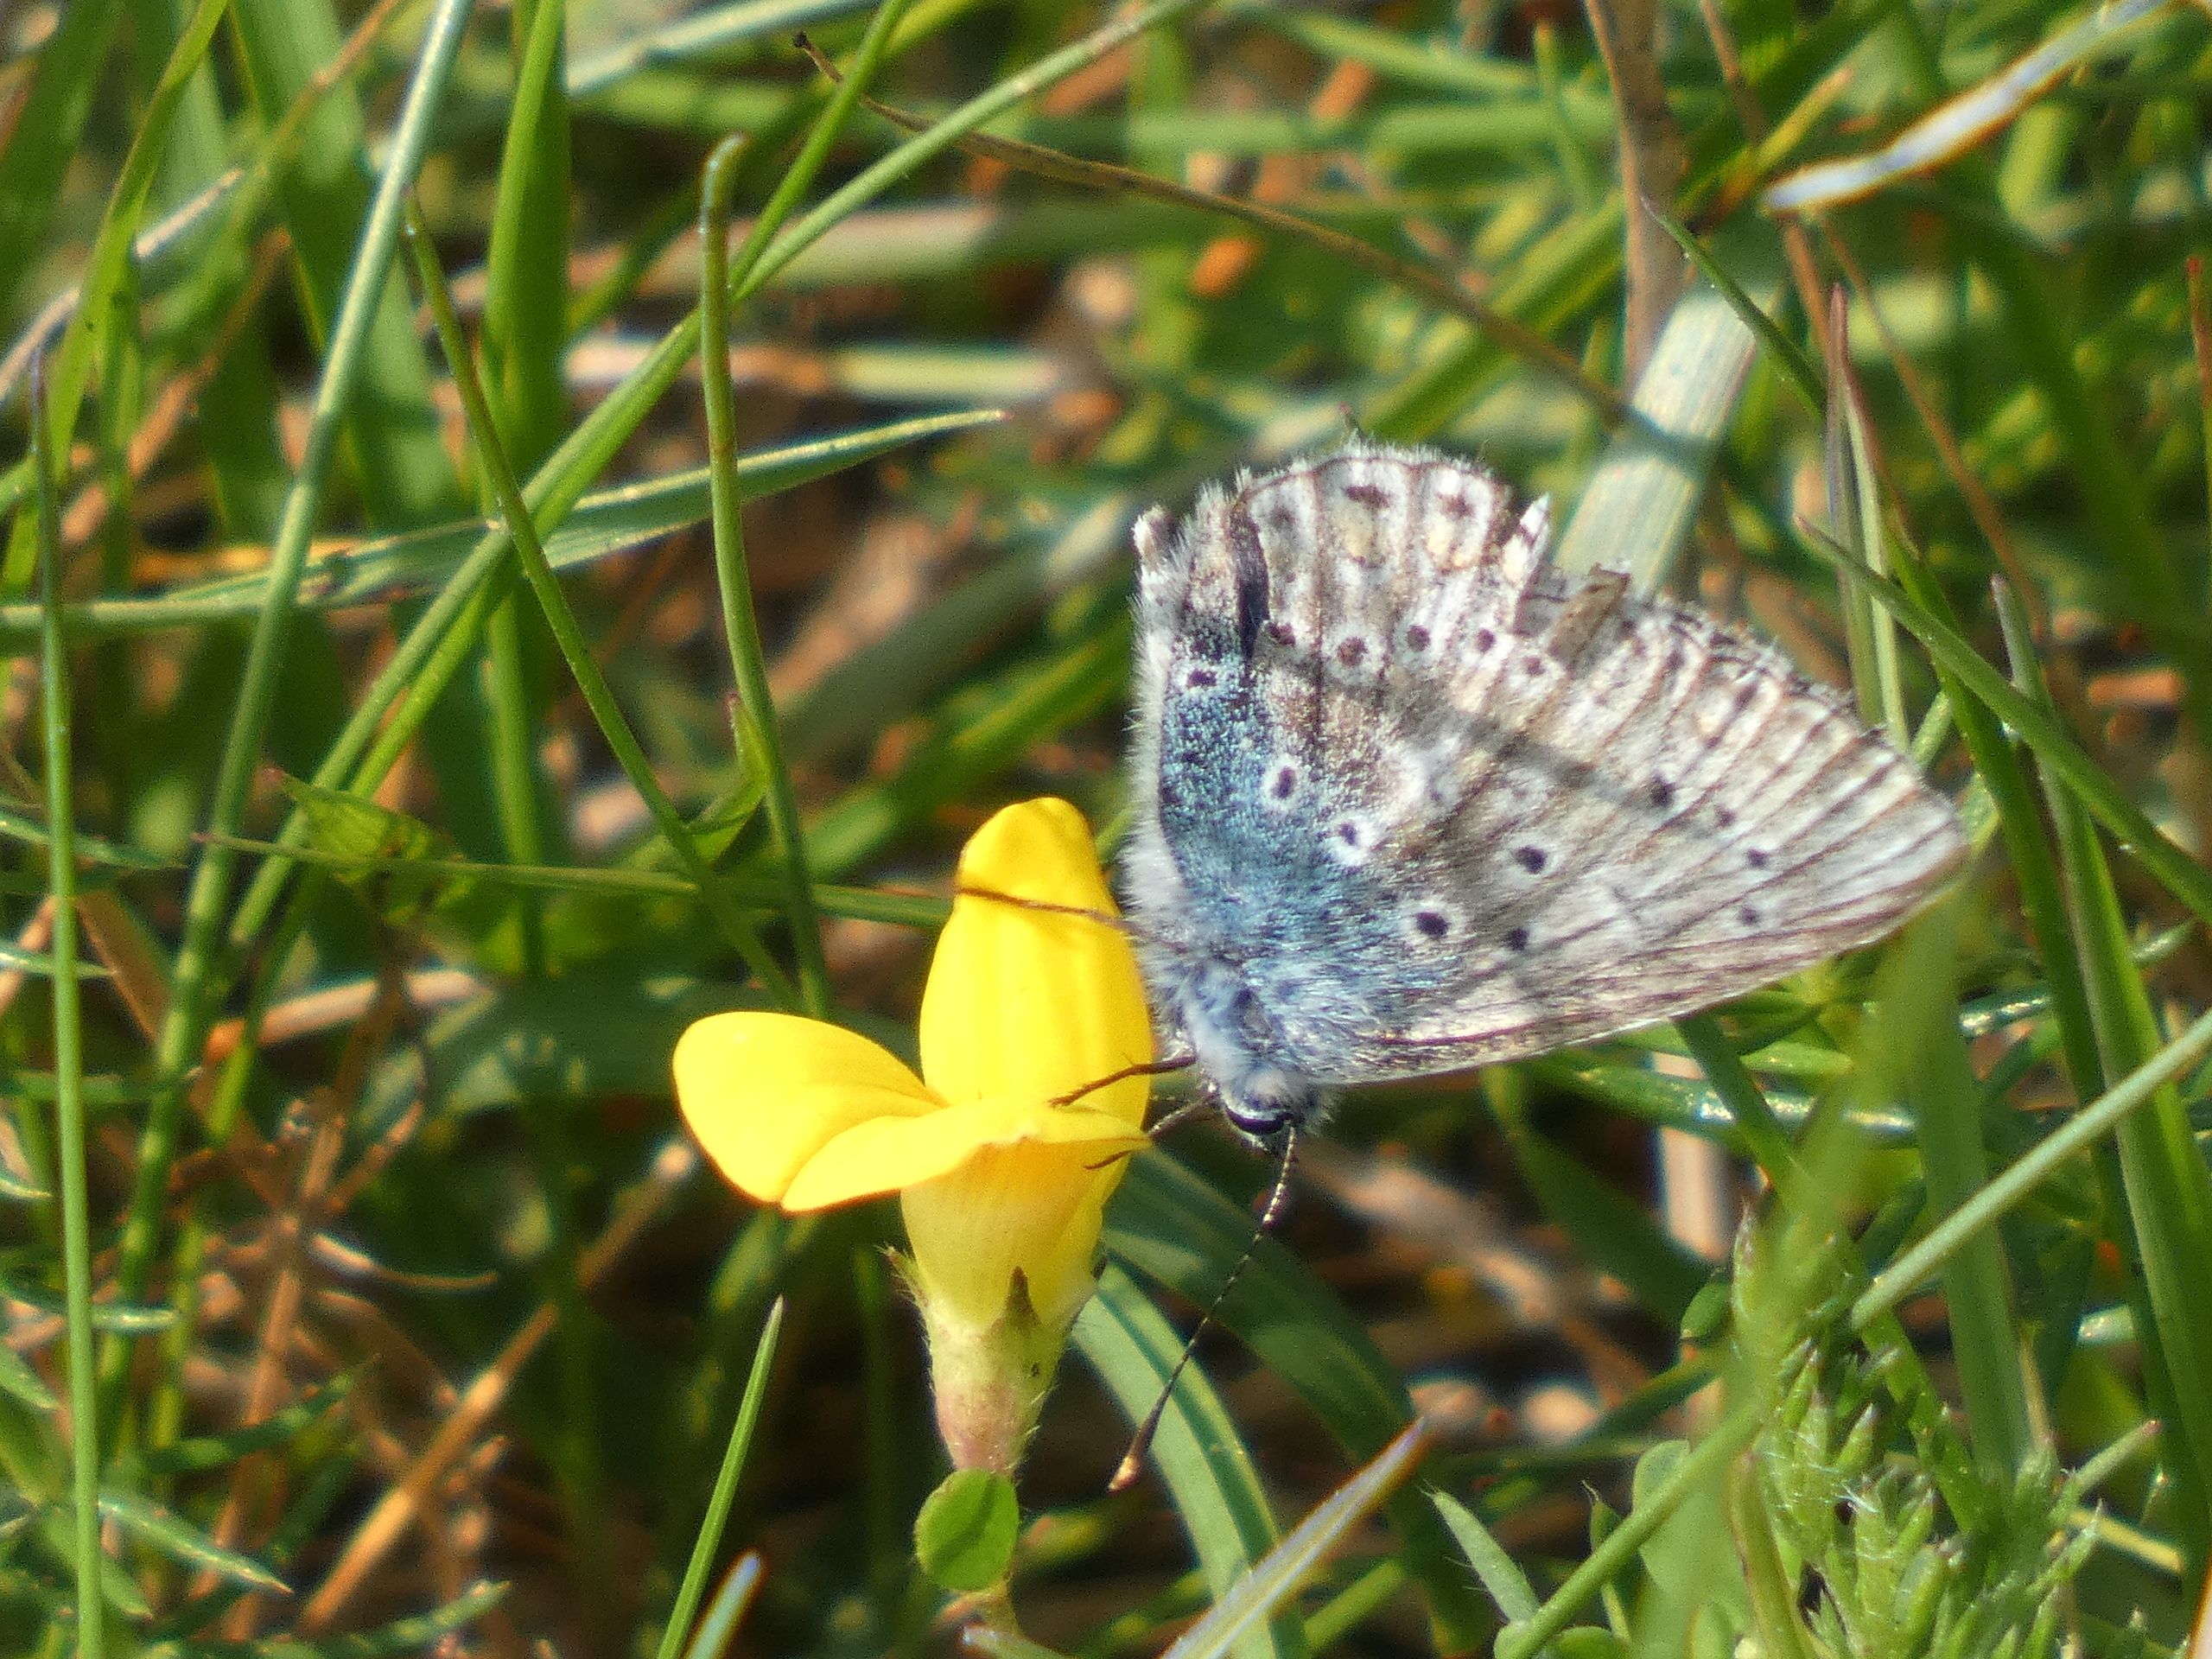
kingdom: Animalia
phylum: Arthropoda
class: Insecta
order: Lepidoptera
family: Lycaenidae
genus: Polyommatus
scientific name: Polyommatus icarus
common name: Almindelig blåfugl
